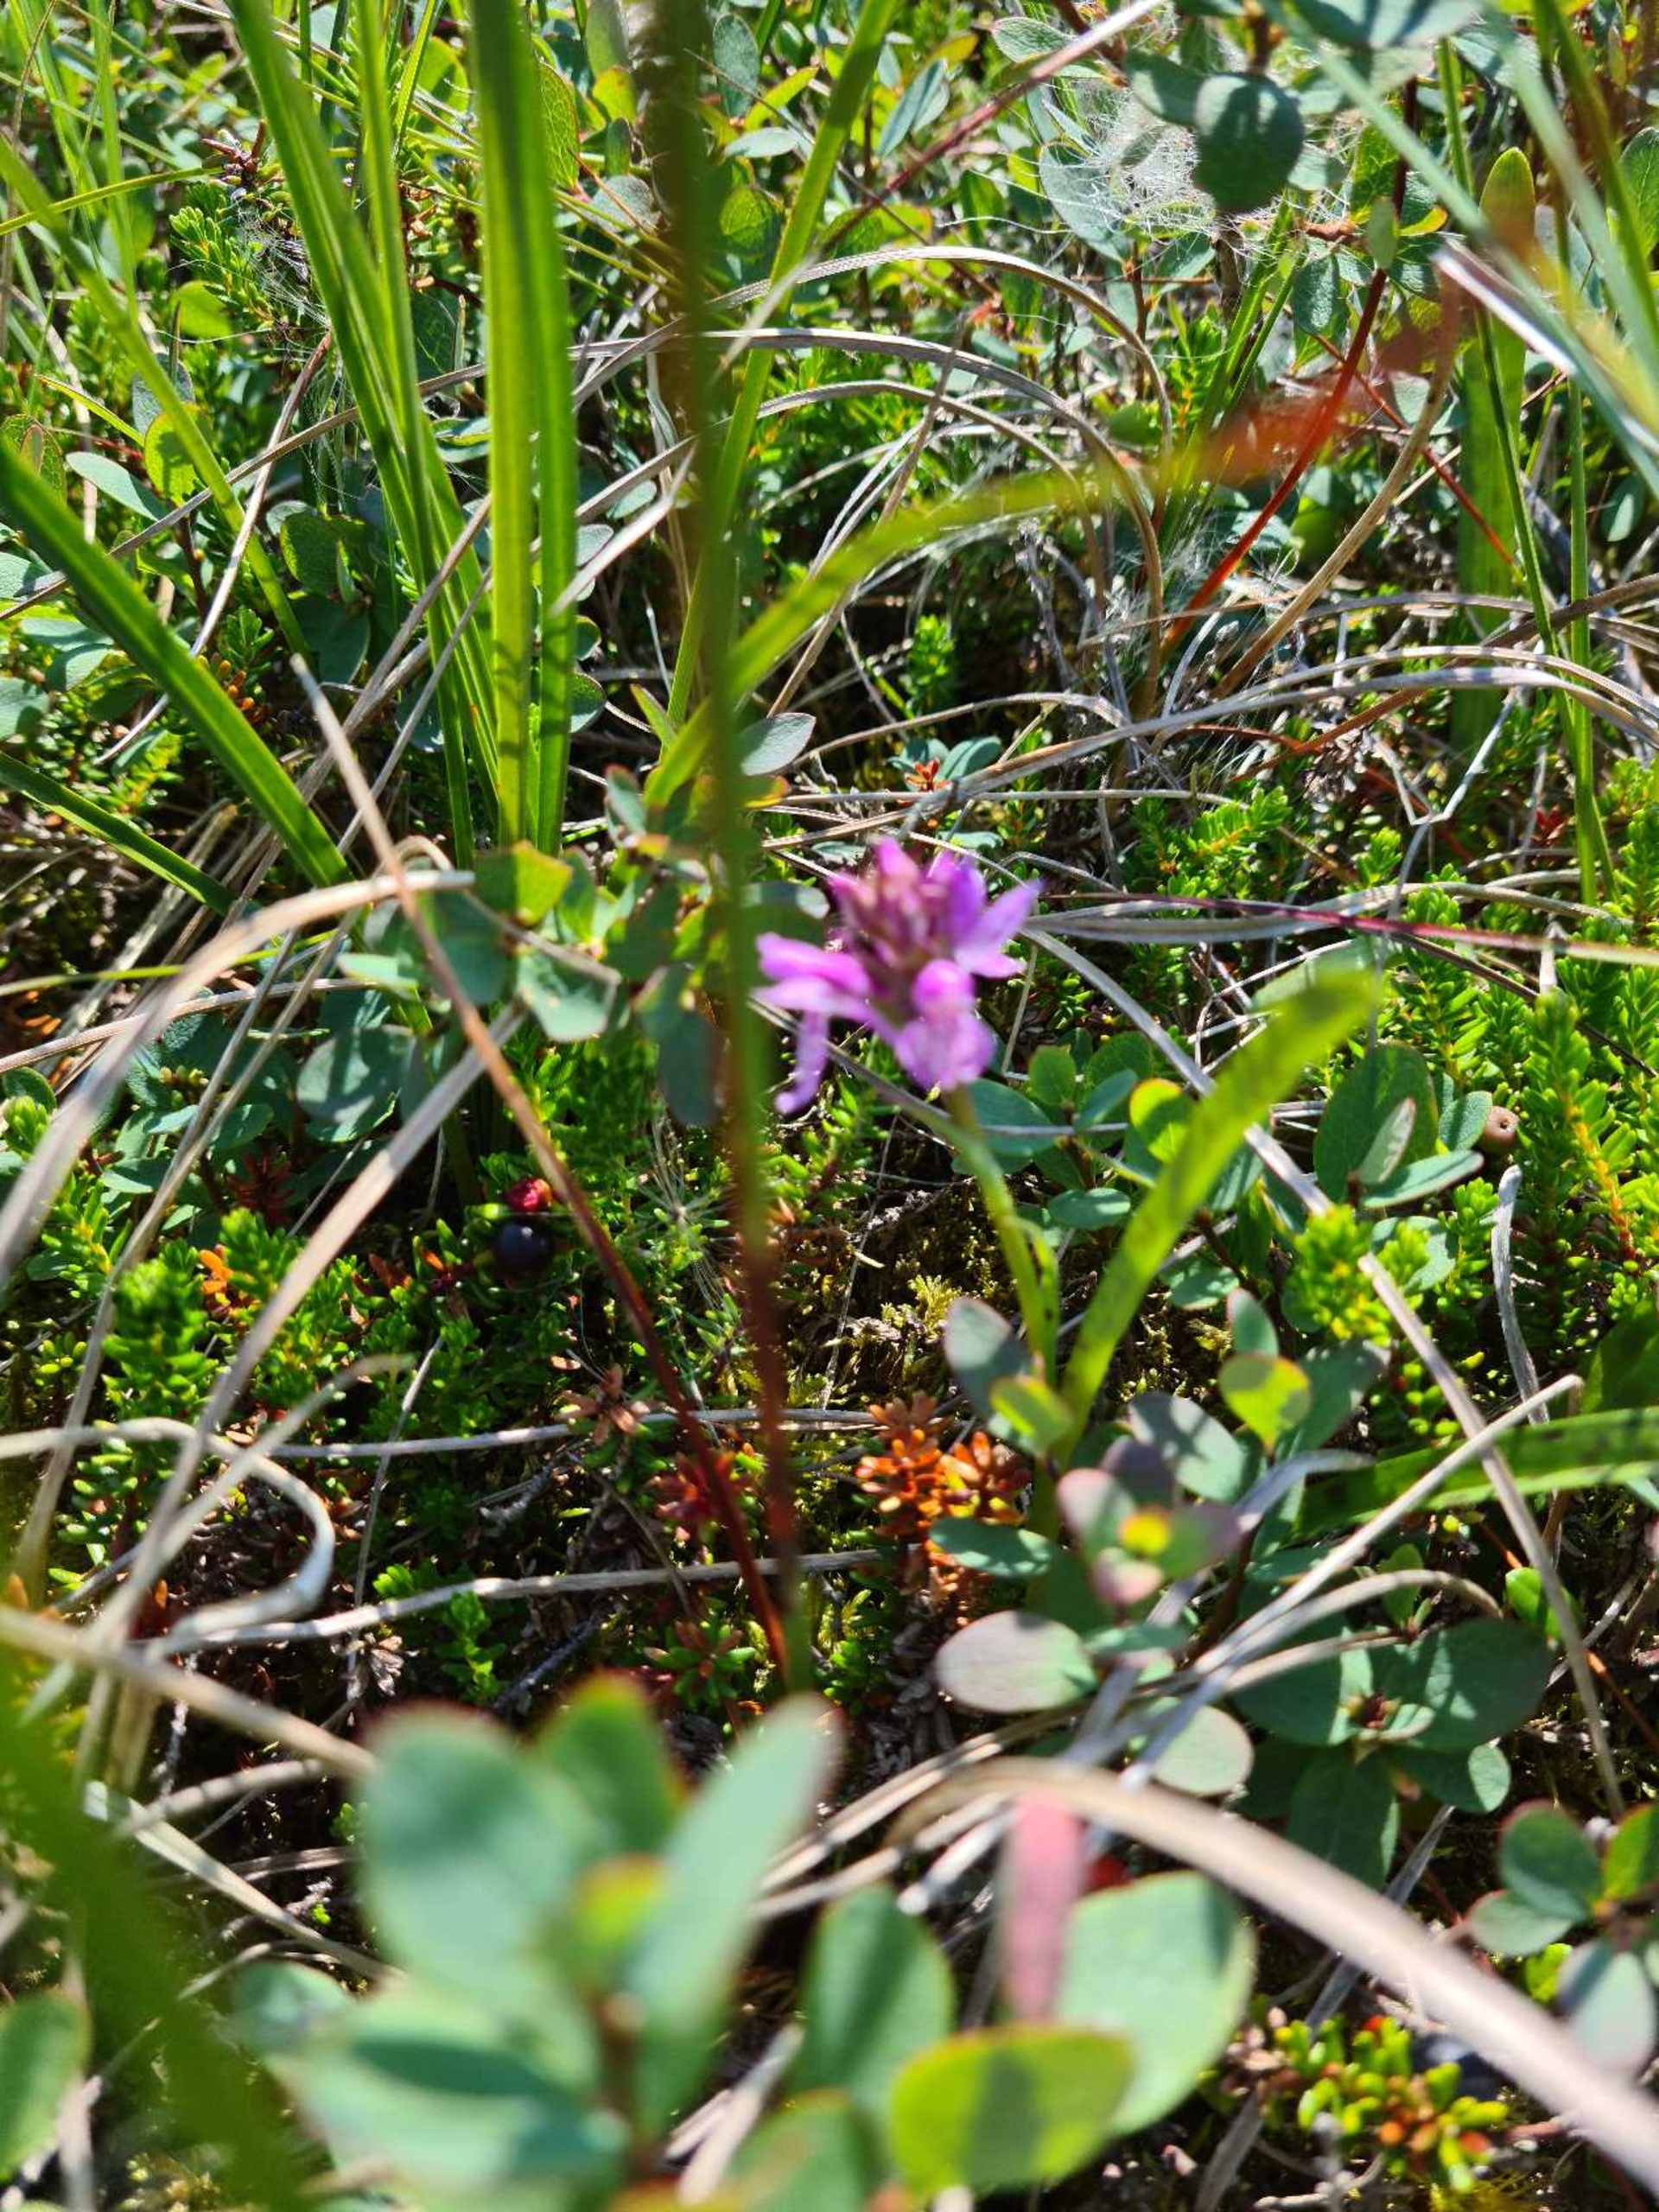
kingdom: Plantae
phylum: Tracheophyta
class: Liliopsida
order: Asparagales
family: Orchidaceae
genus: Dactylorhiza
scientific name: Dactylorhiza maculata
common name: Plettet gøgeurt
